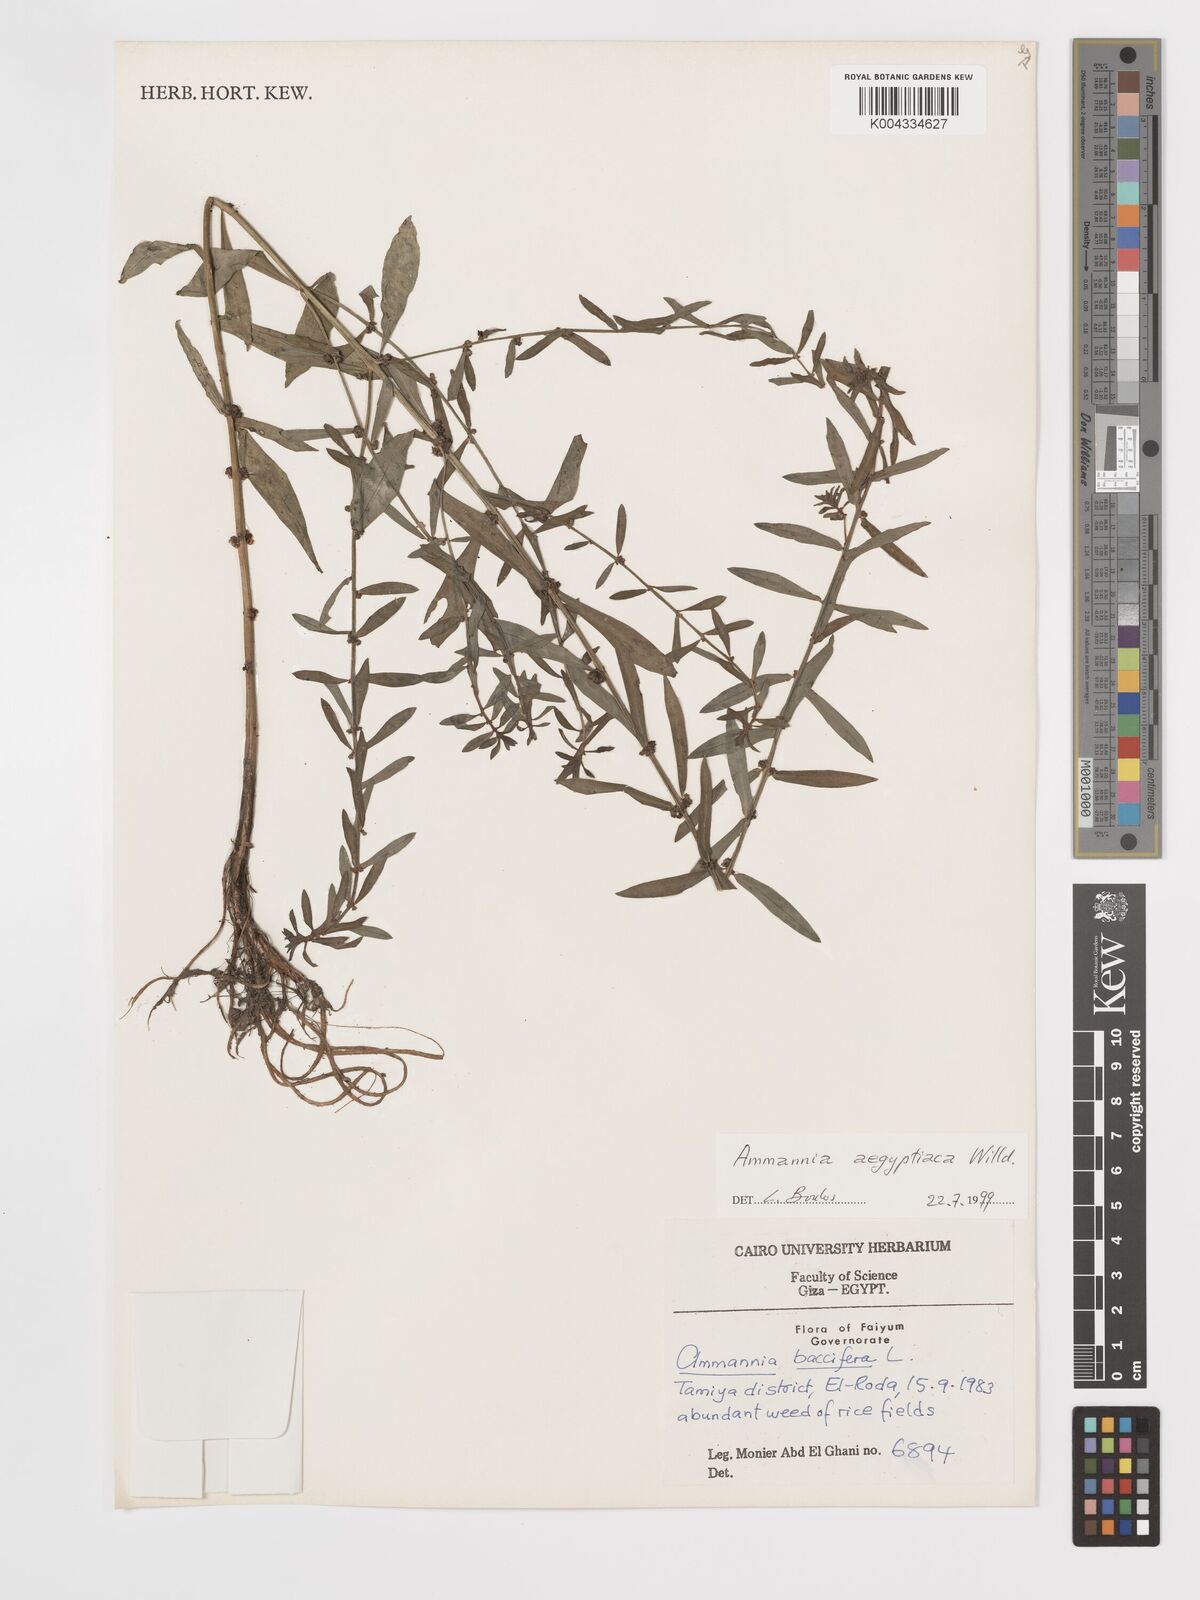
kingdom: Plantae
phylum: Tracheophyta
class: Magnoliopsida
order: Myrtales
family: Lythraceae
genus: Ammannia
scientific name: Ammannia
